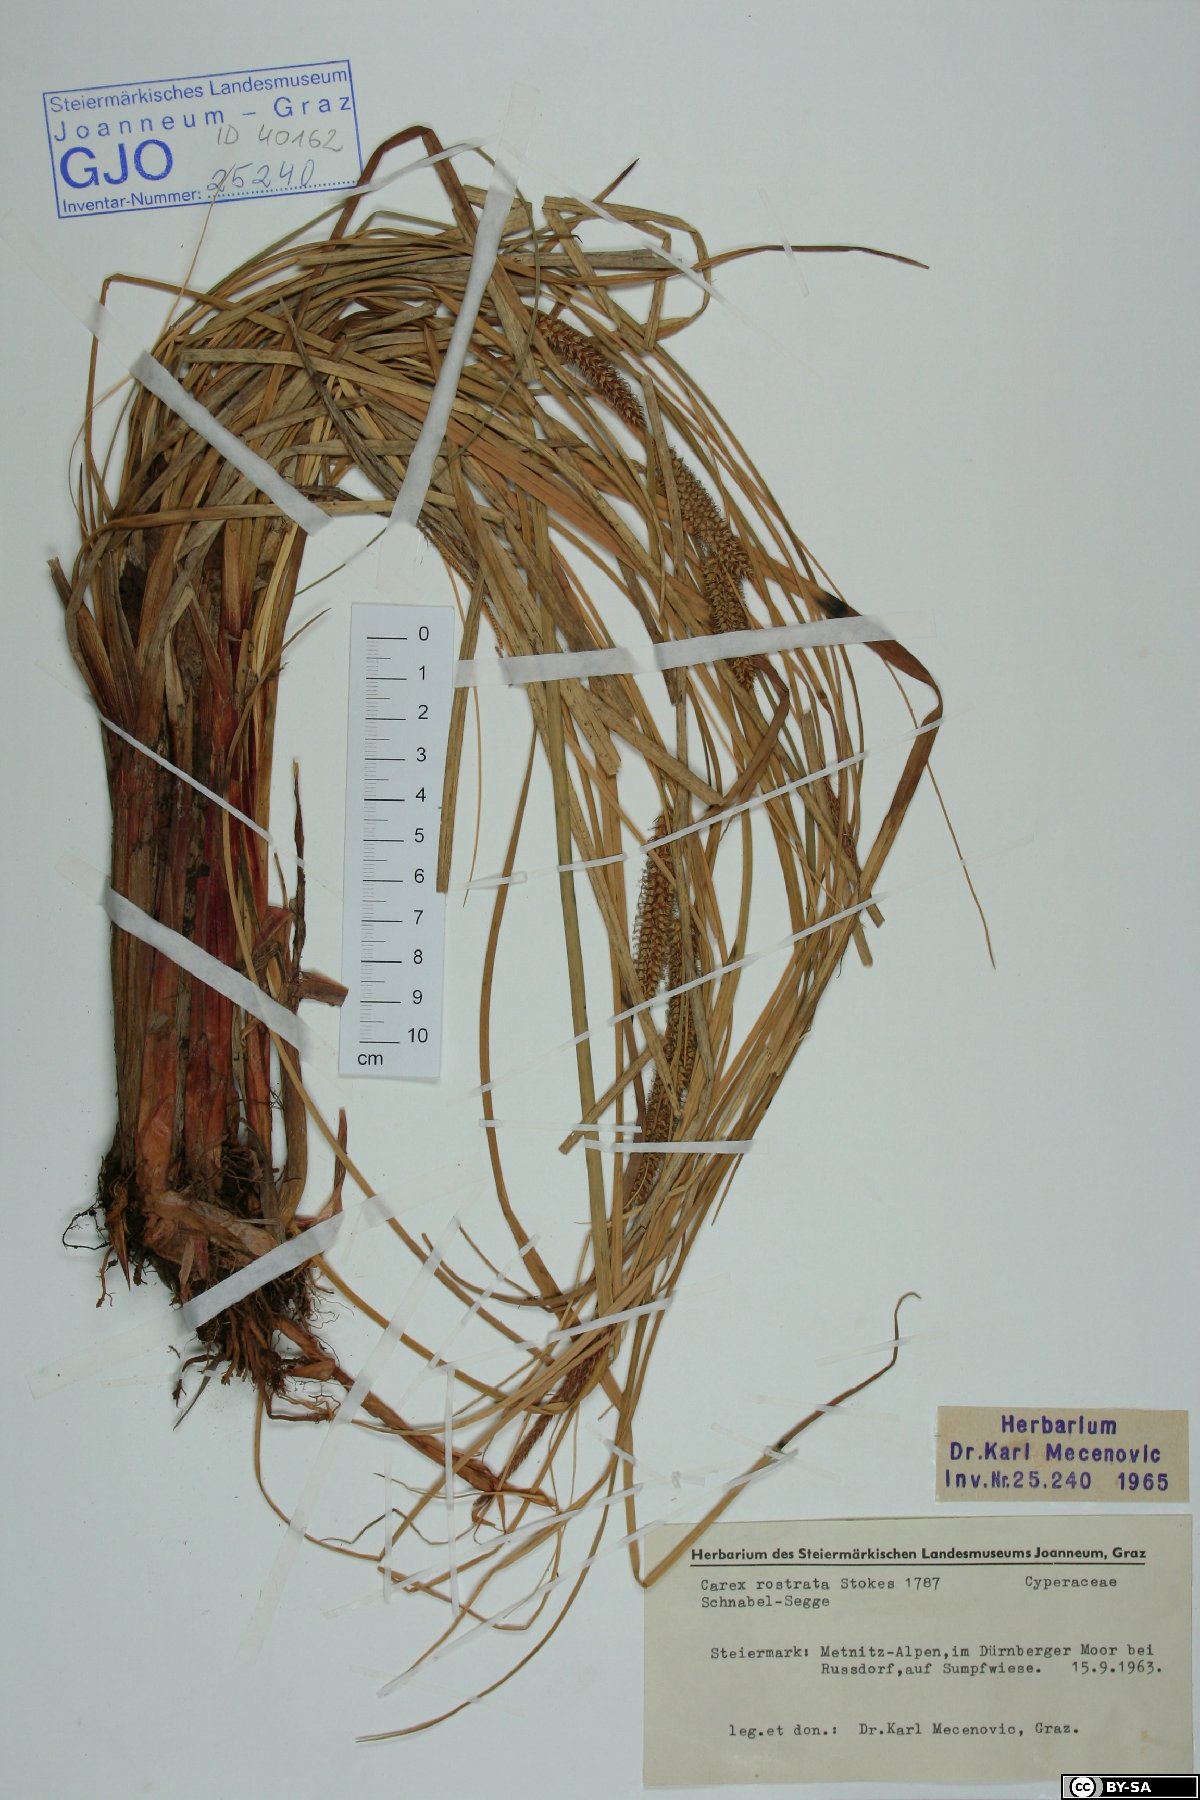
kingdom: Plantae
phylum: Tracheophyta
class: Liliopsida
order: Poales
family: Cyperaceae
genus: Carex
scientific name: Carex rostrata
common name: Bottle sedge
